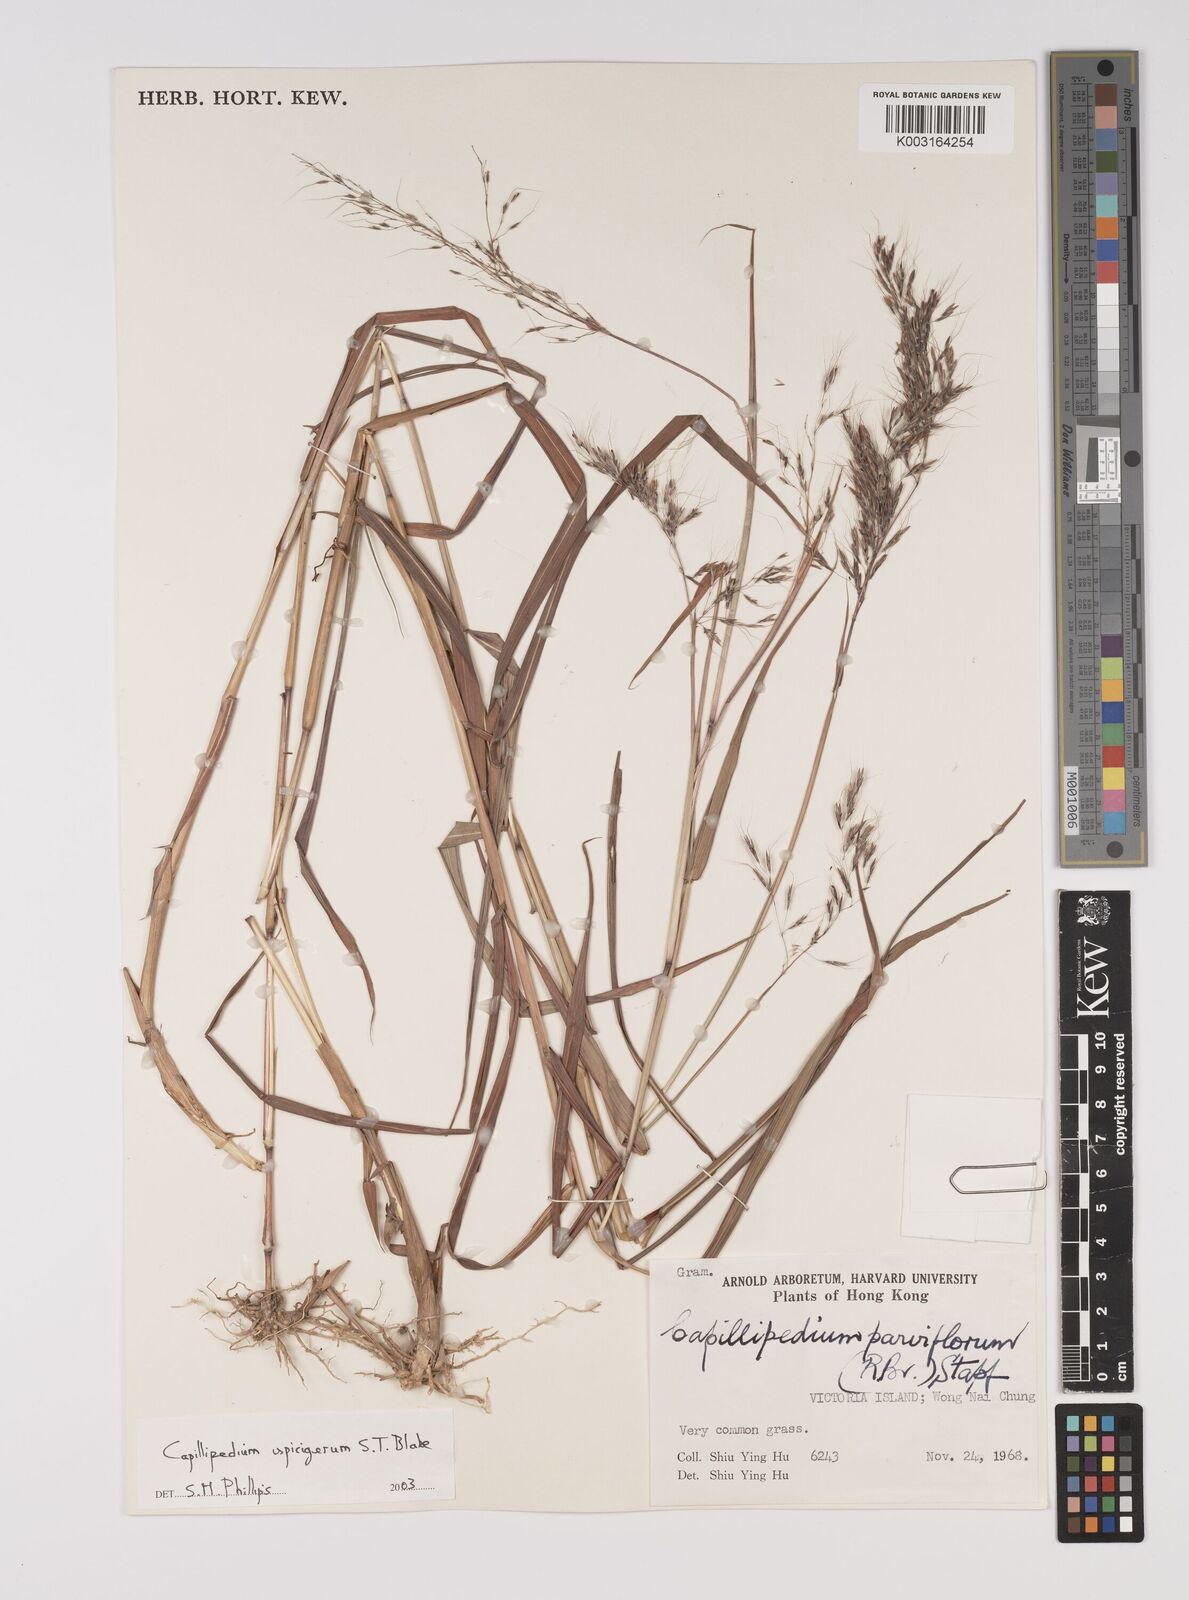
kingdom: Plantae
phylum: Tracheophyta
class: Liliopsida
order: Poales
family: Poaceae
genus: Capillipedium
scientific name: Capillipedium spicigerum
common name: Scented-top grass
